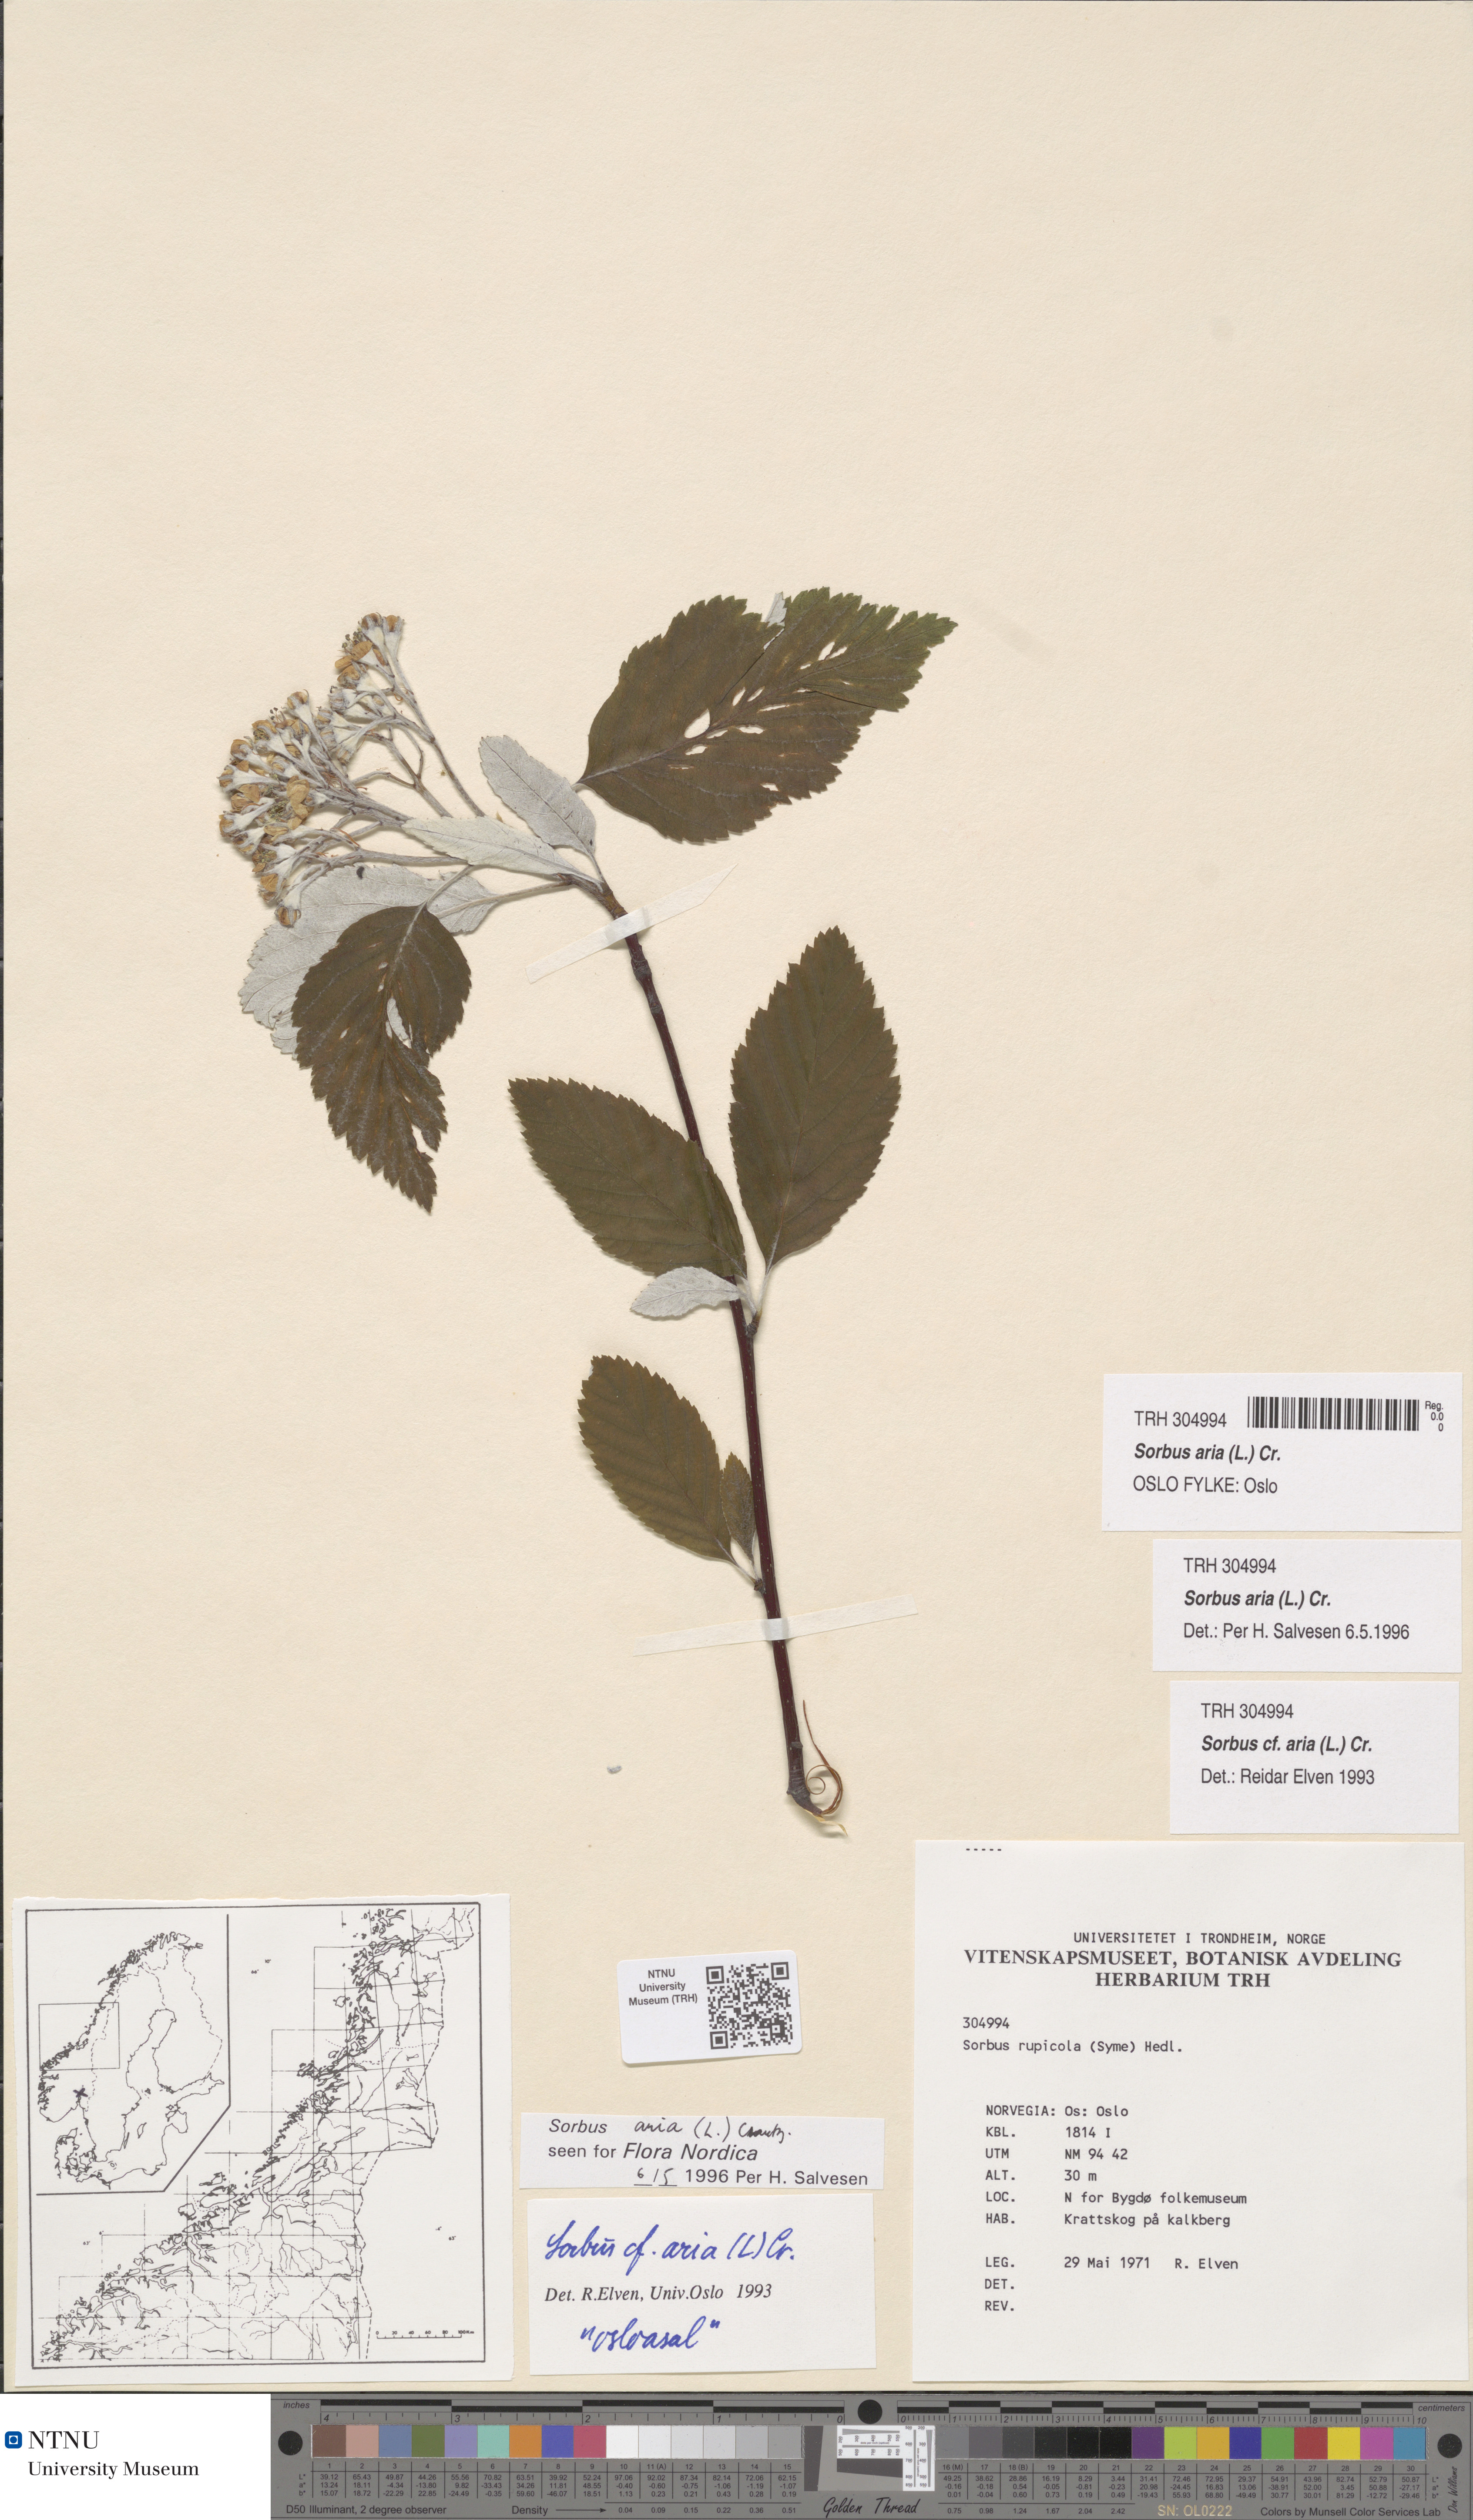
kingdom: Plantae
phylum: Tracheophyta
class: Magnoliopsida
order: Rosales
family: Rosaceae
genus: Aria
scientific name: Aria edulis
